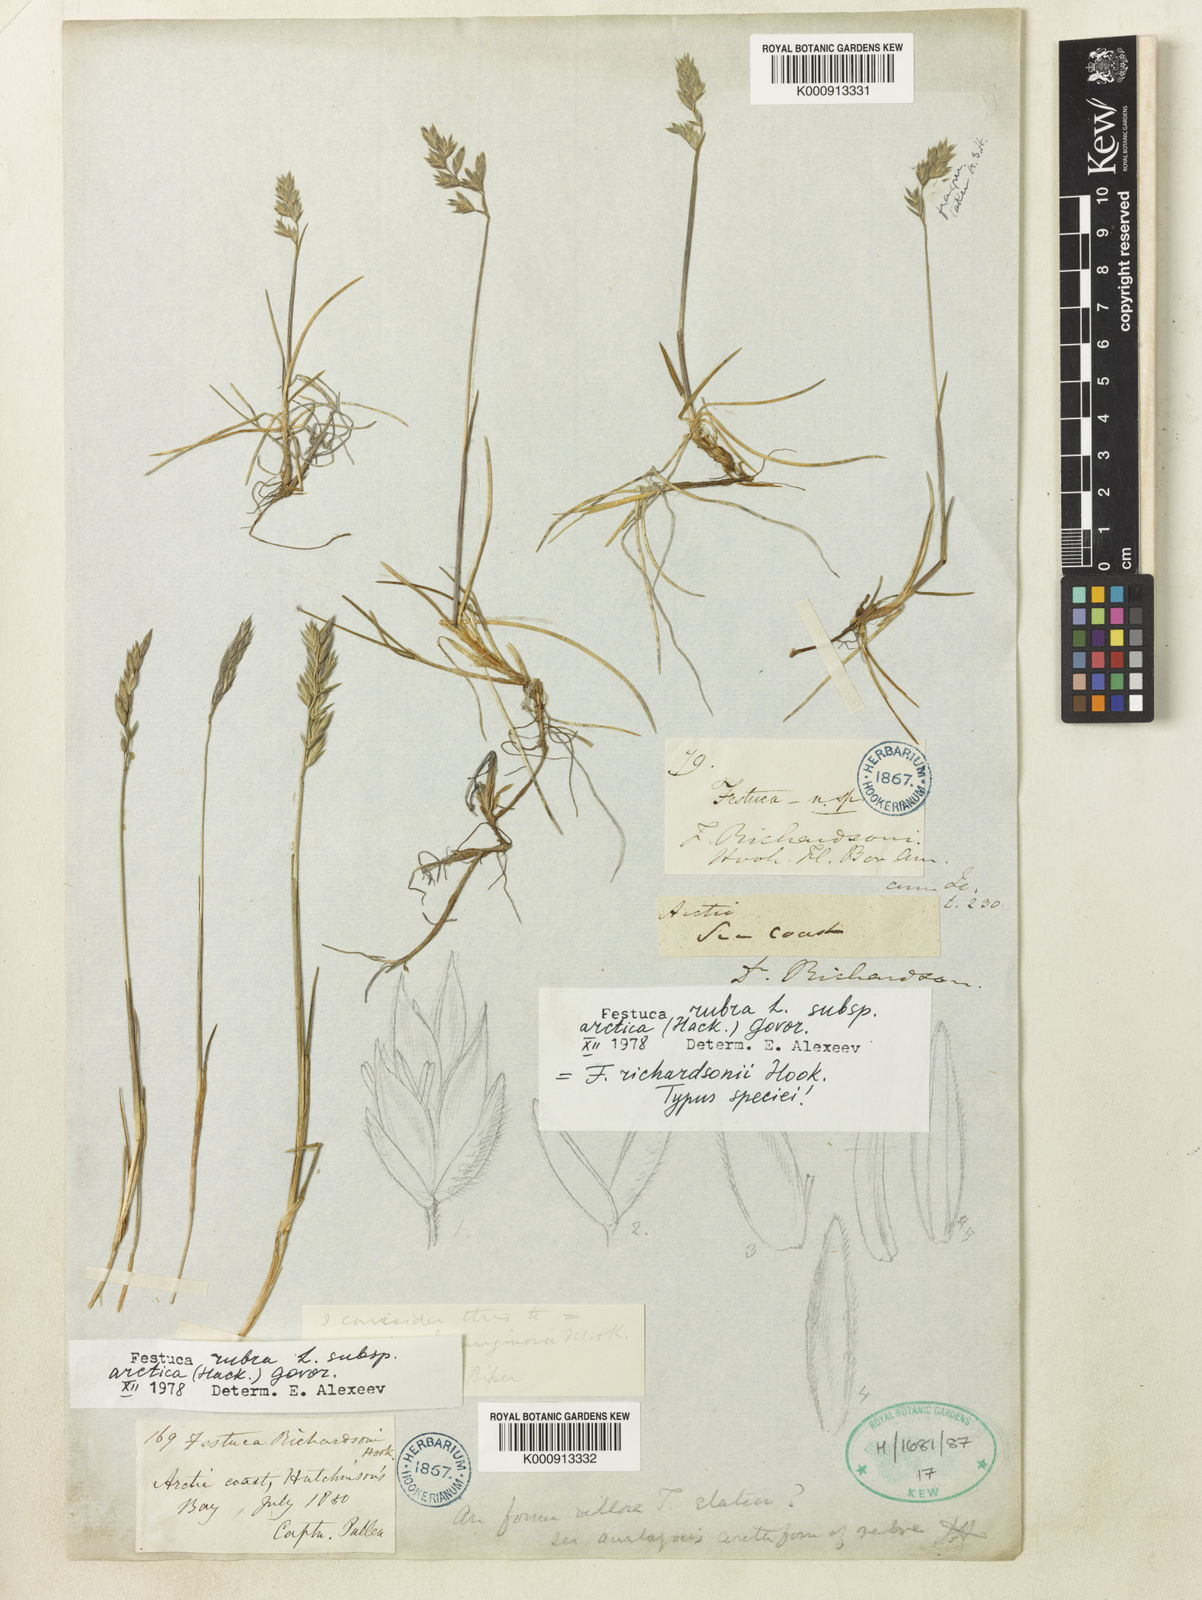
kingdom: Plantae
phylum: Tracheophyta
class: Liliopsida
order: Poales
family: Poaceae
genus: Festuca
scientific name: Festuca rubra
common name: Red fescue
